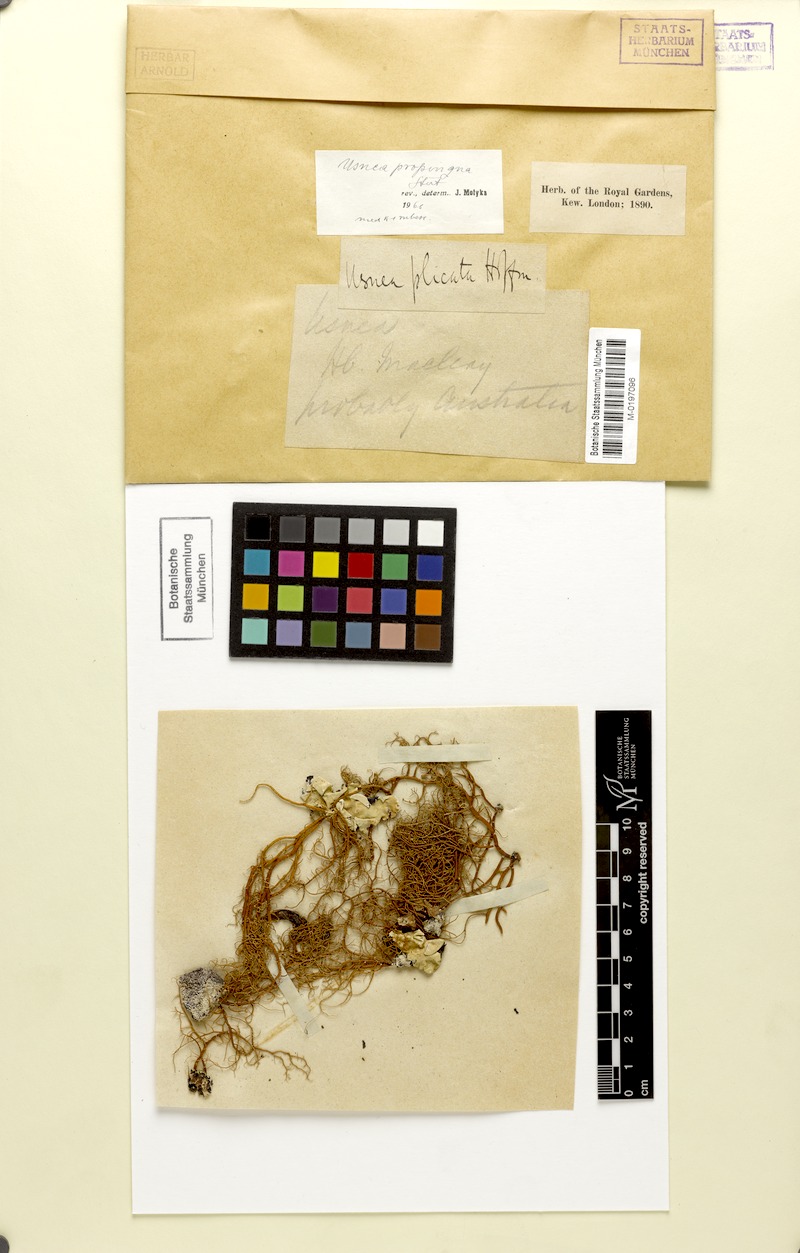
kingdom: Fungi
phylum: Ascomycota
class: Lecanoromycetes
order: Lecanorales
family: Parmeliaceae
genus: Usnea
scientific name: Usnea nidifica
